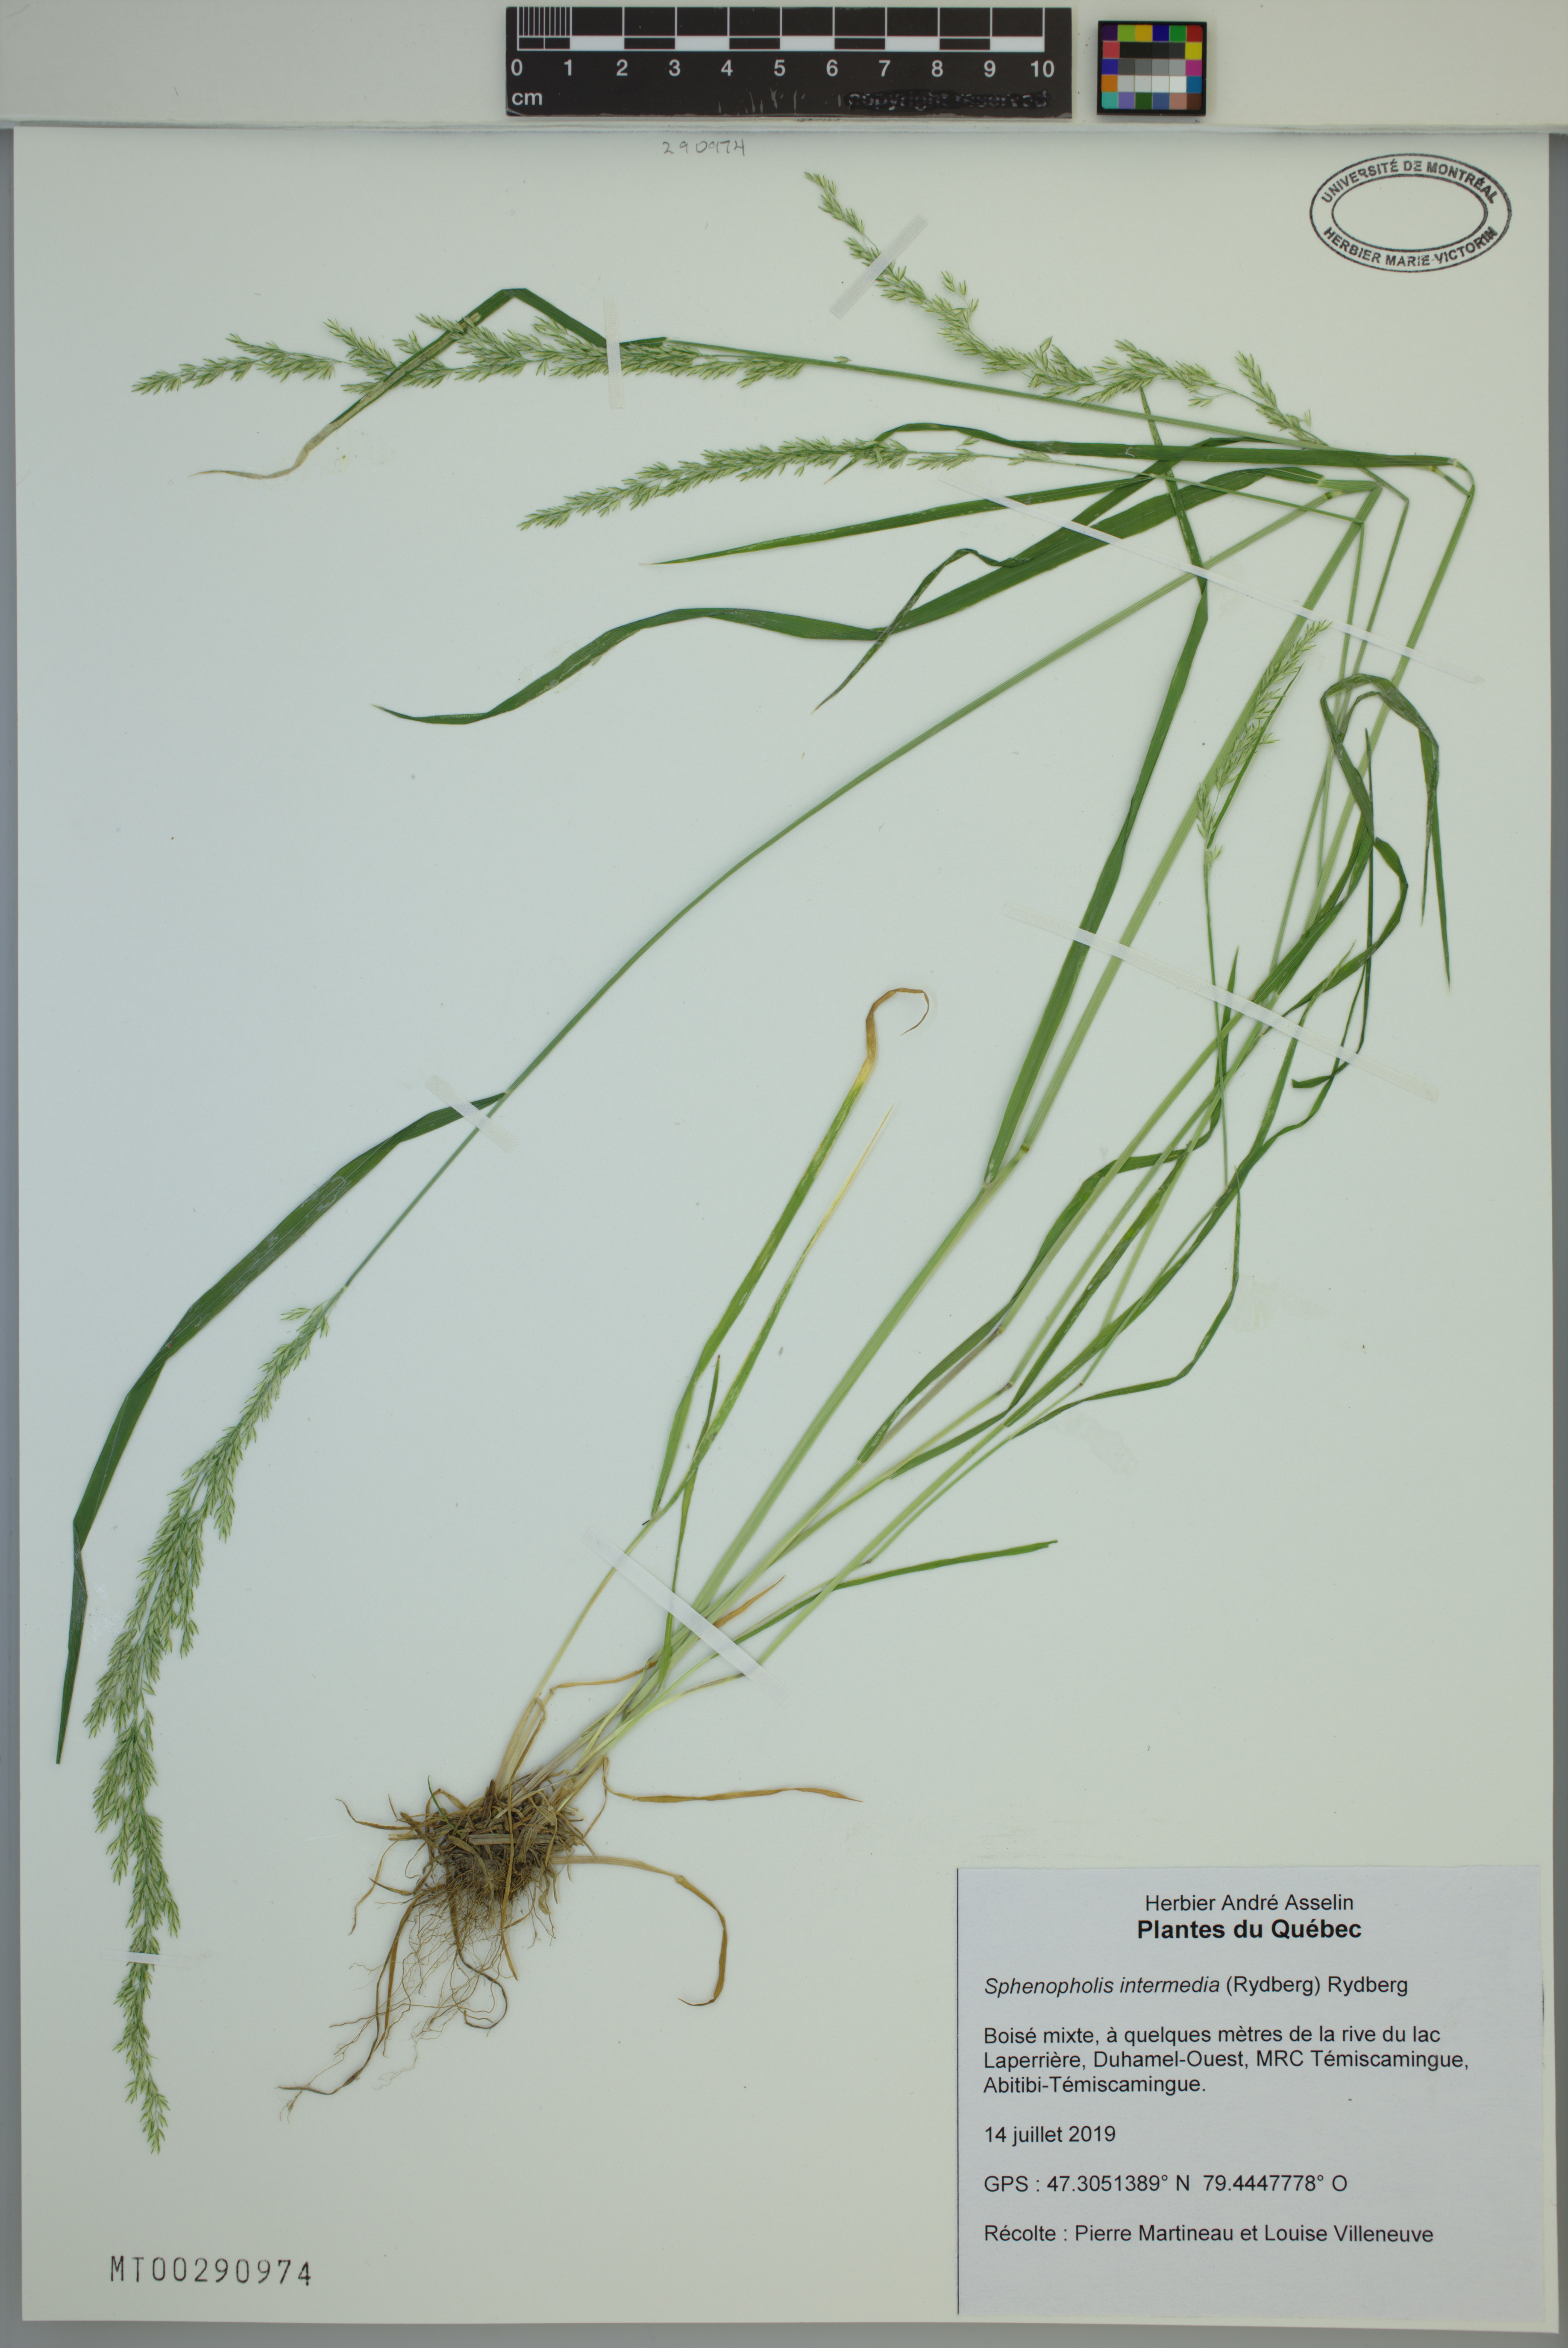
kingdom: Plantae
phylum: Tracheophyta
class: Liliopsida
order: Poales
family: Poaceae
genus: Sphenopholis
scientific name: Sphenopholis intermedia
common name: Intermediate eaton's grass
